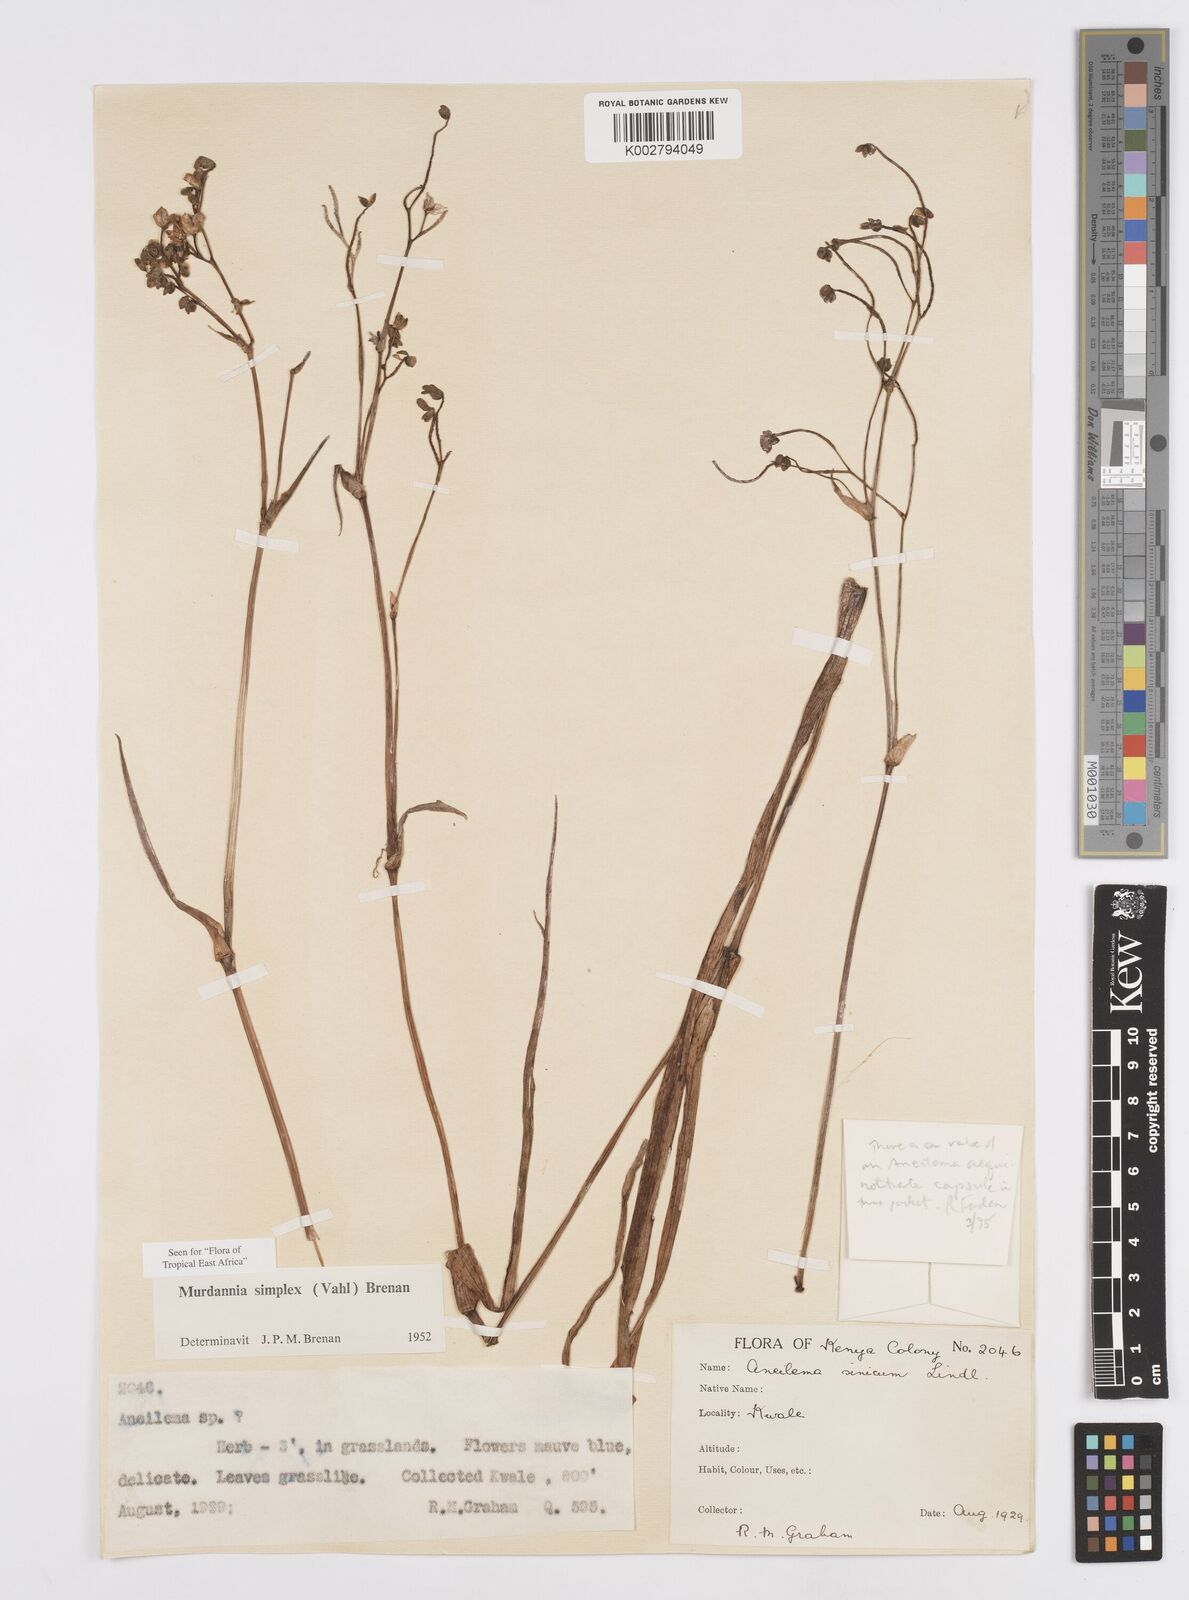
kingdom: Plantae
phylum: Tracheophyta
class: Liliopsida
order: Commelinales
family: Commelinaceae
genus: Murdannia
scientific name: Murdannia simplex
